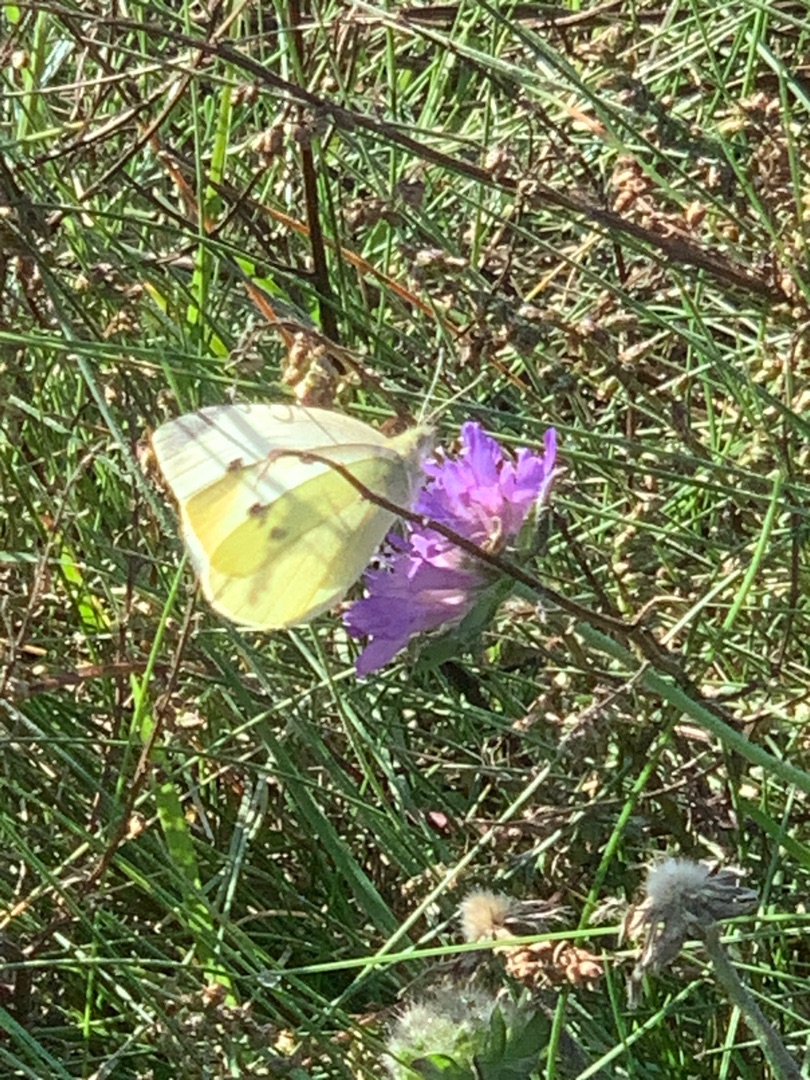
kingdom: Animalia
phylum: Arthropoda
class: Insecta
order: Lepidoptera
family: Pieridae
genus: Pieris
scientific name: Pieris rapae
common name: Lille kålsommerfugl
